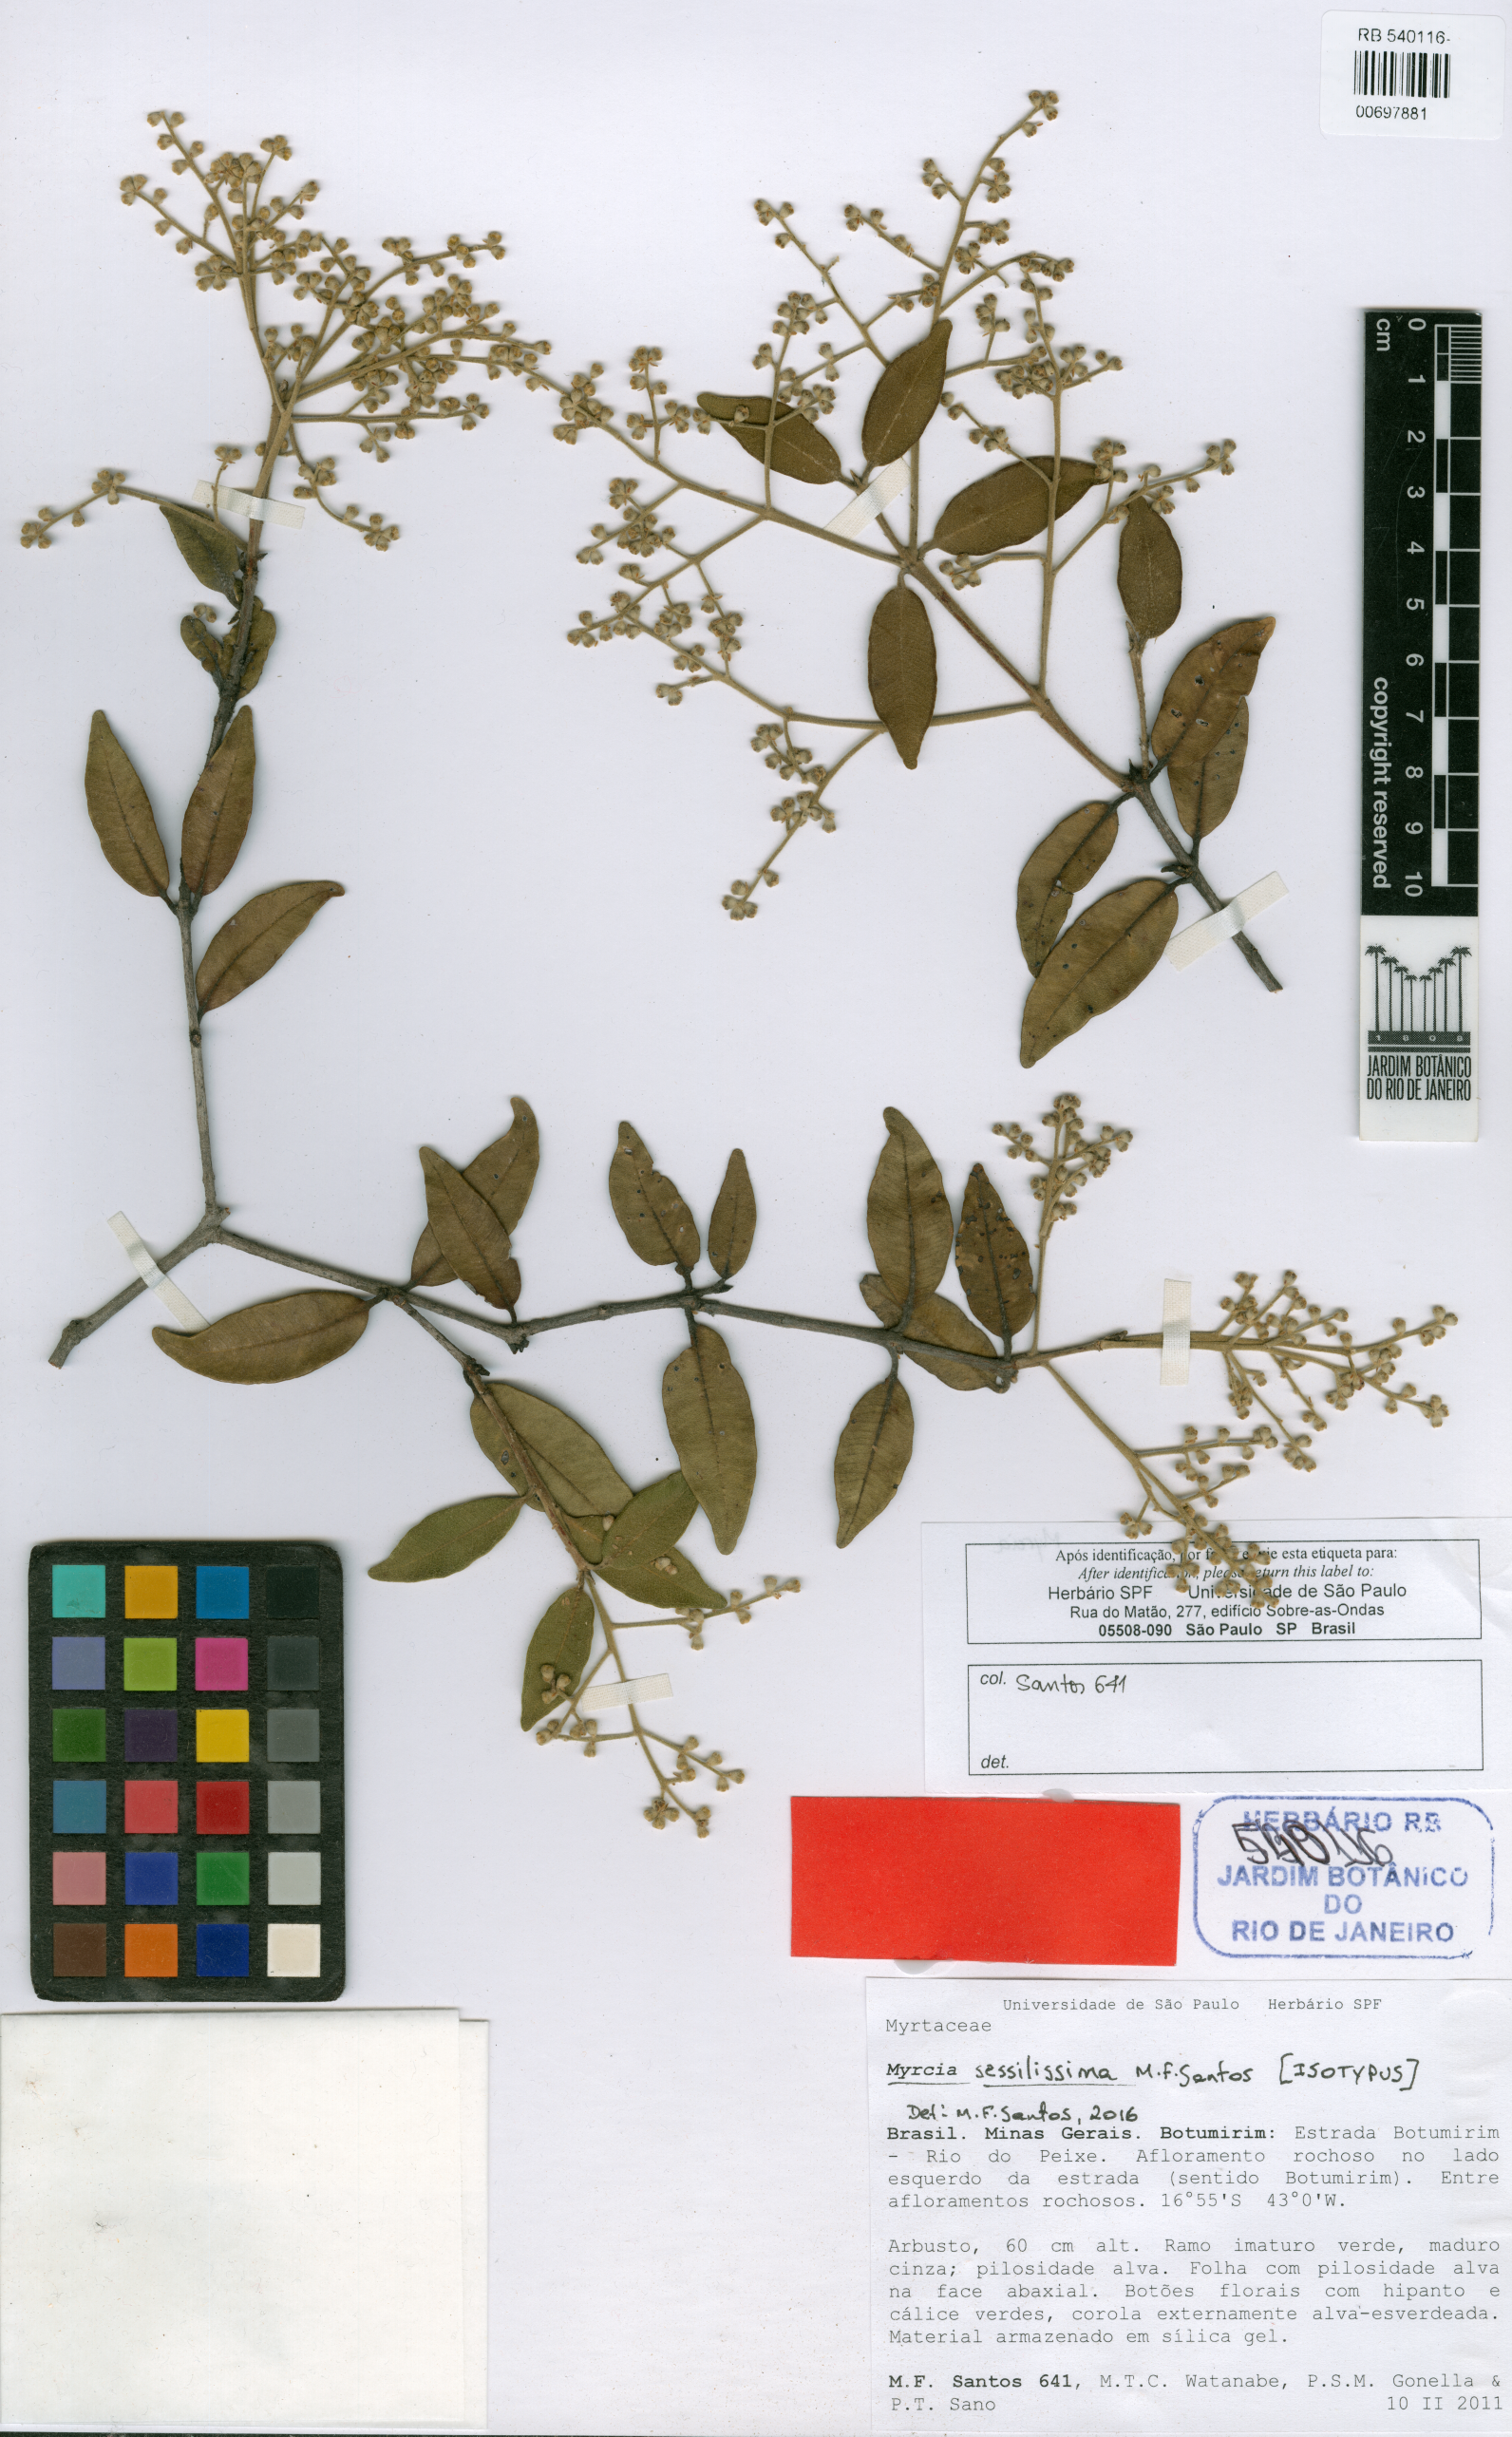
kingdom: Plantae
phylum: Tracheophyta
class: Magnoliopsida
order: Myrtales
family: Myrtaceae
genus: Myrcia
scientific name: Myrcia sessilissima
